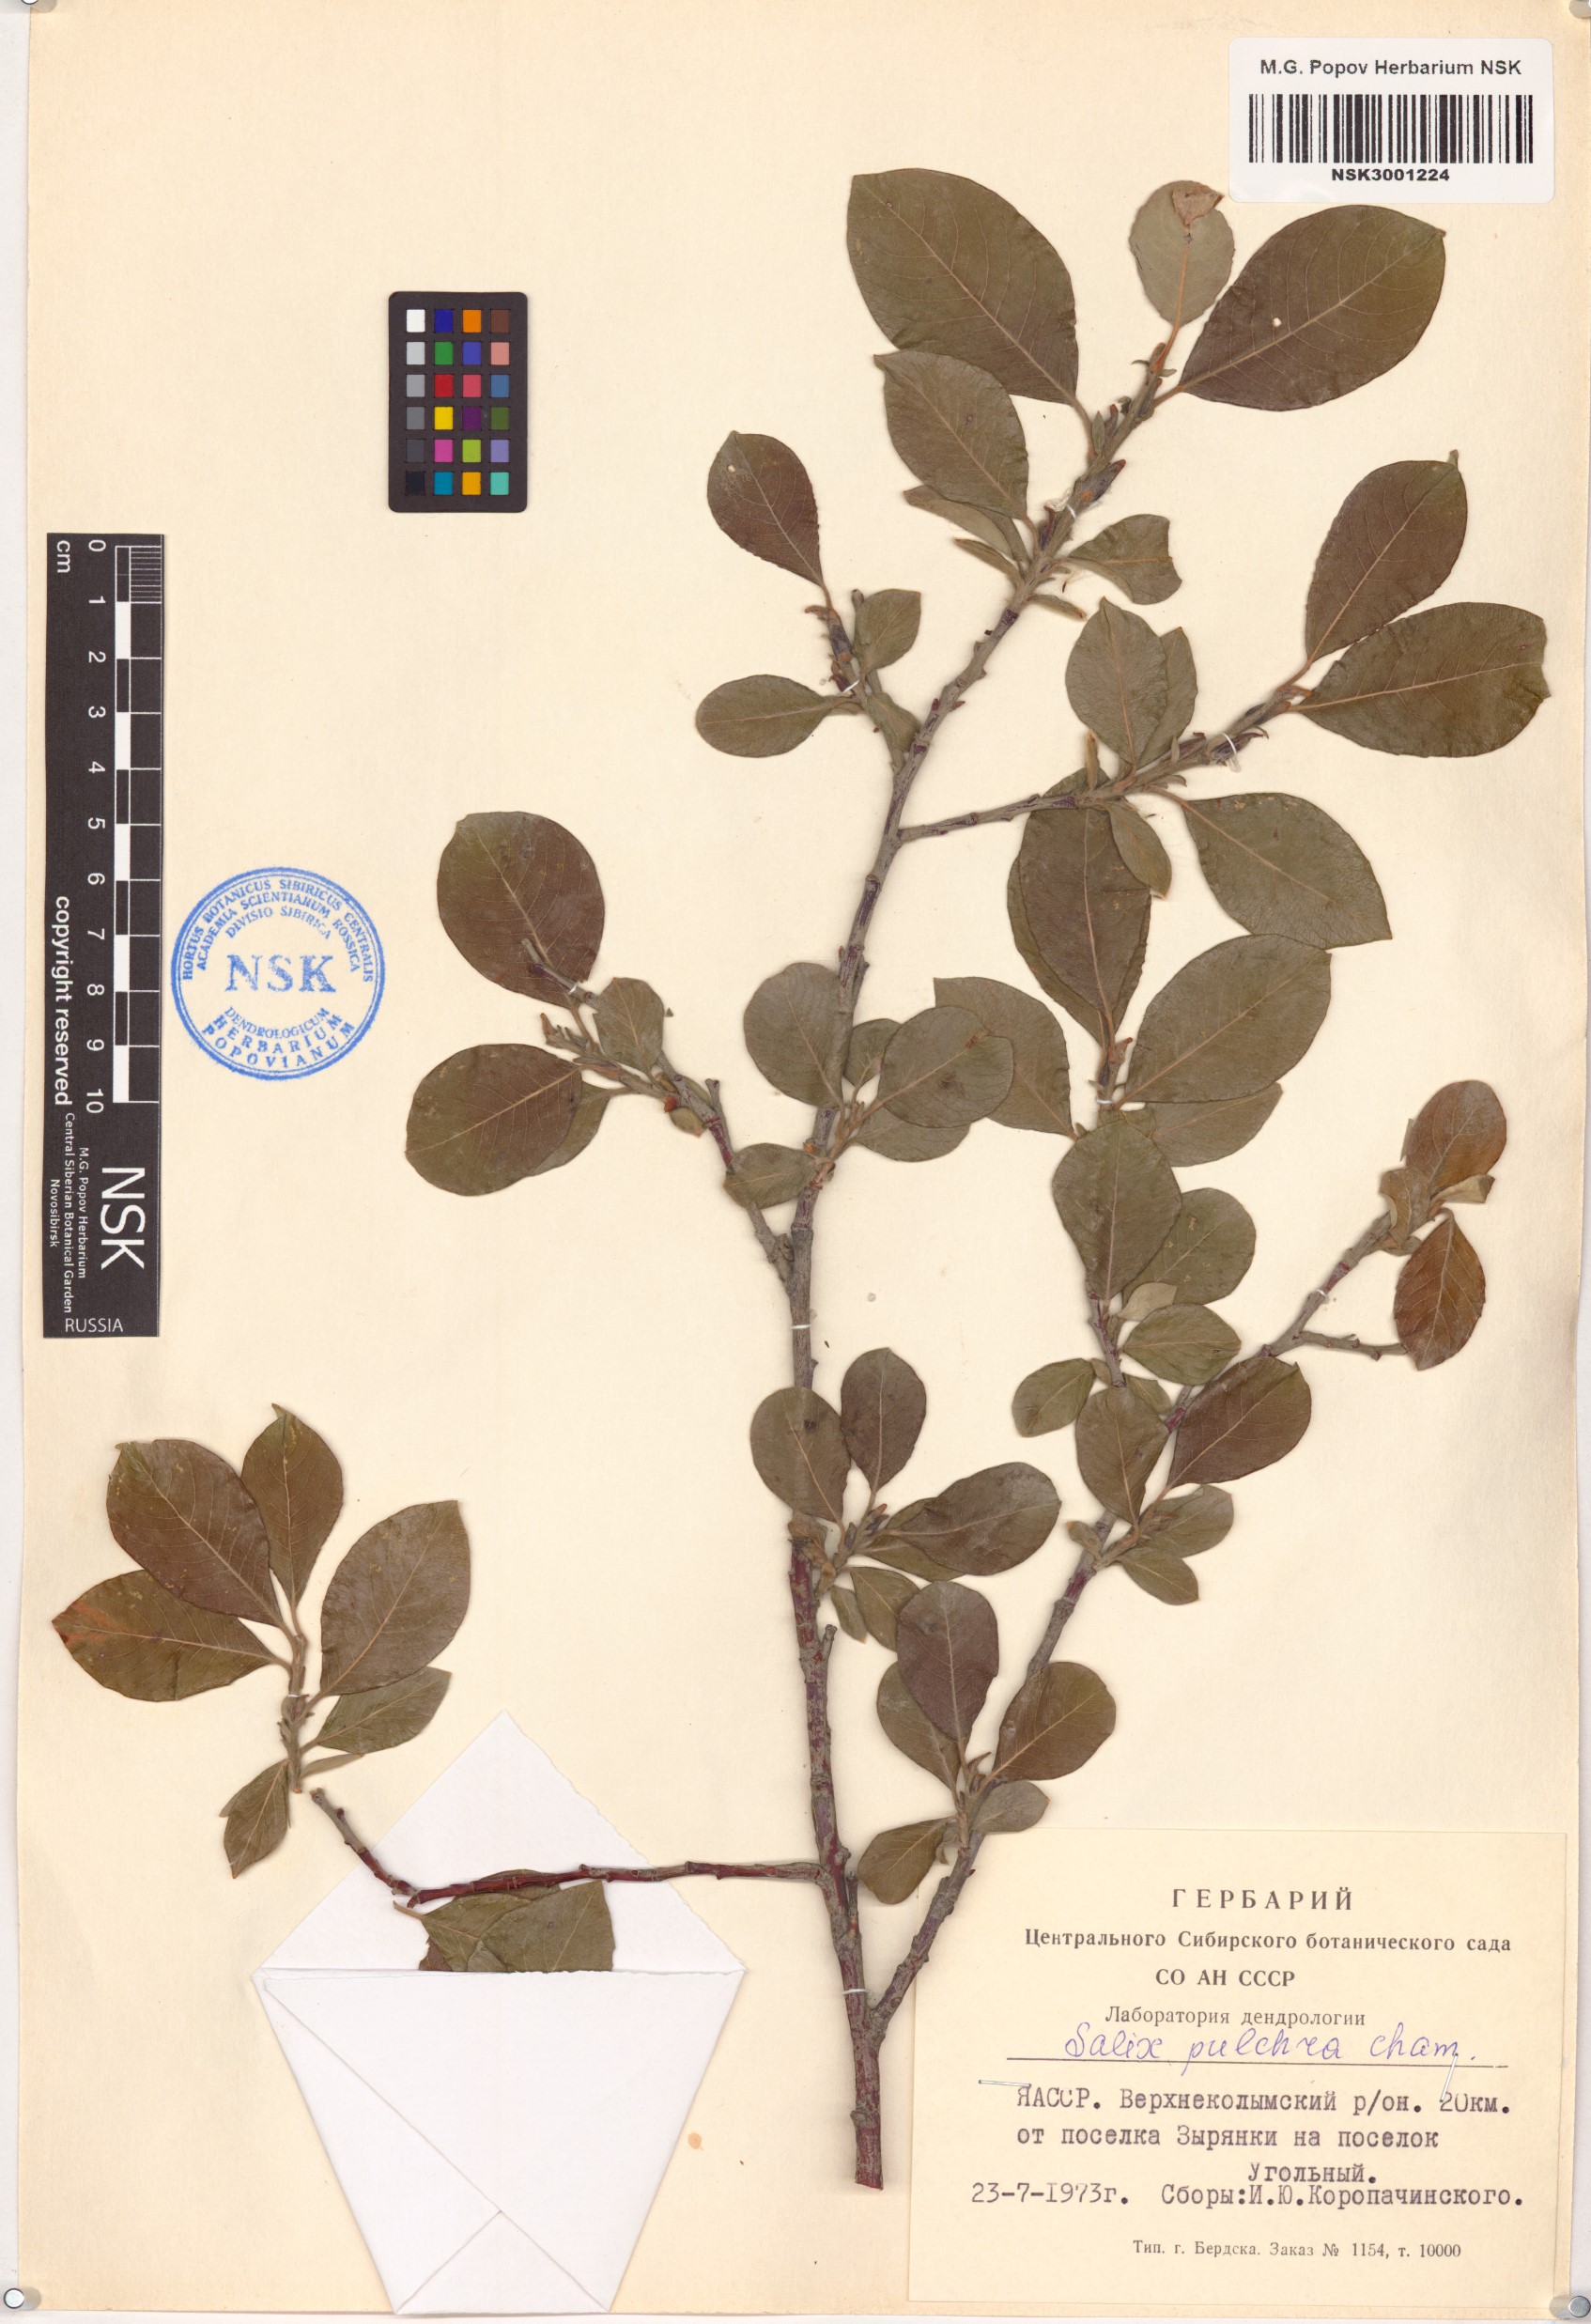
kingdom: Plantae
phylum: Tracheophyta
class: Magnoliopsida
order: Malpighiales
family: Salicaceae
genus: Salix
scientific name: Salix pulchra
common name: Diamond-leaved willow
